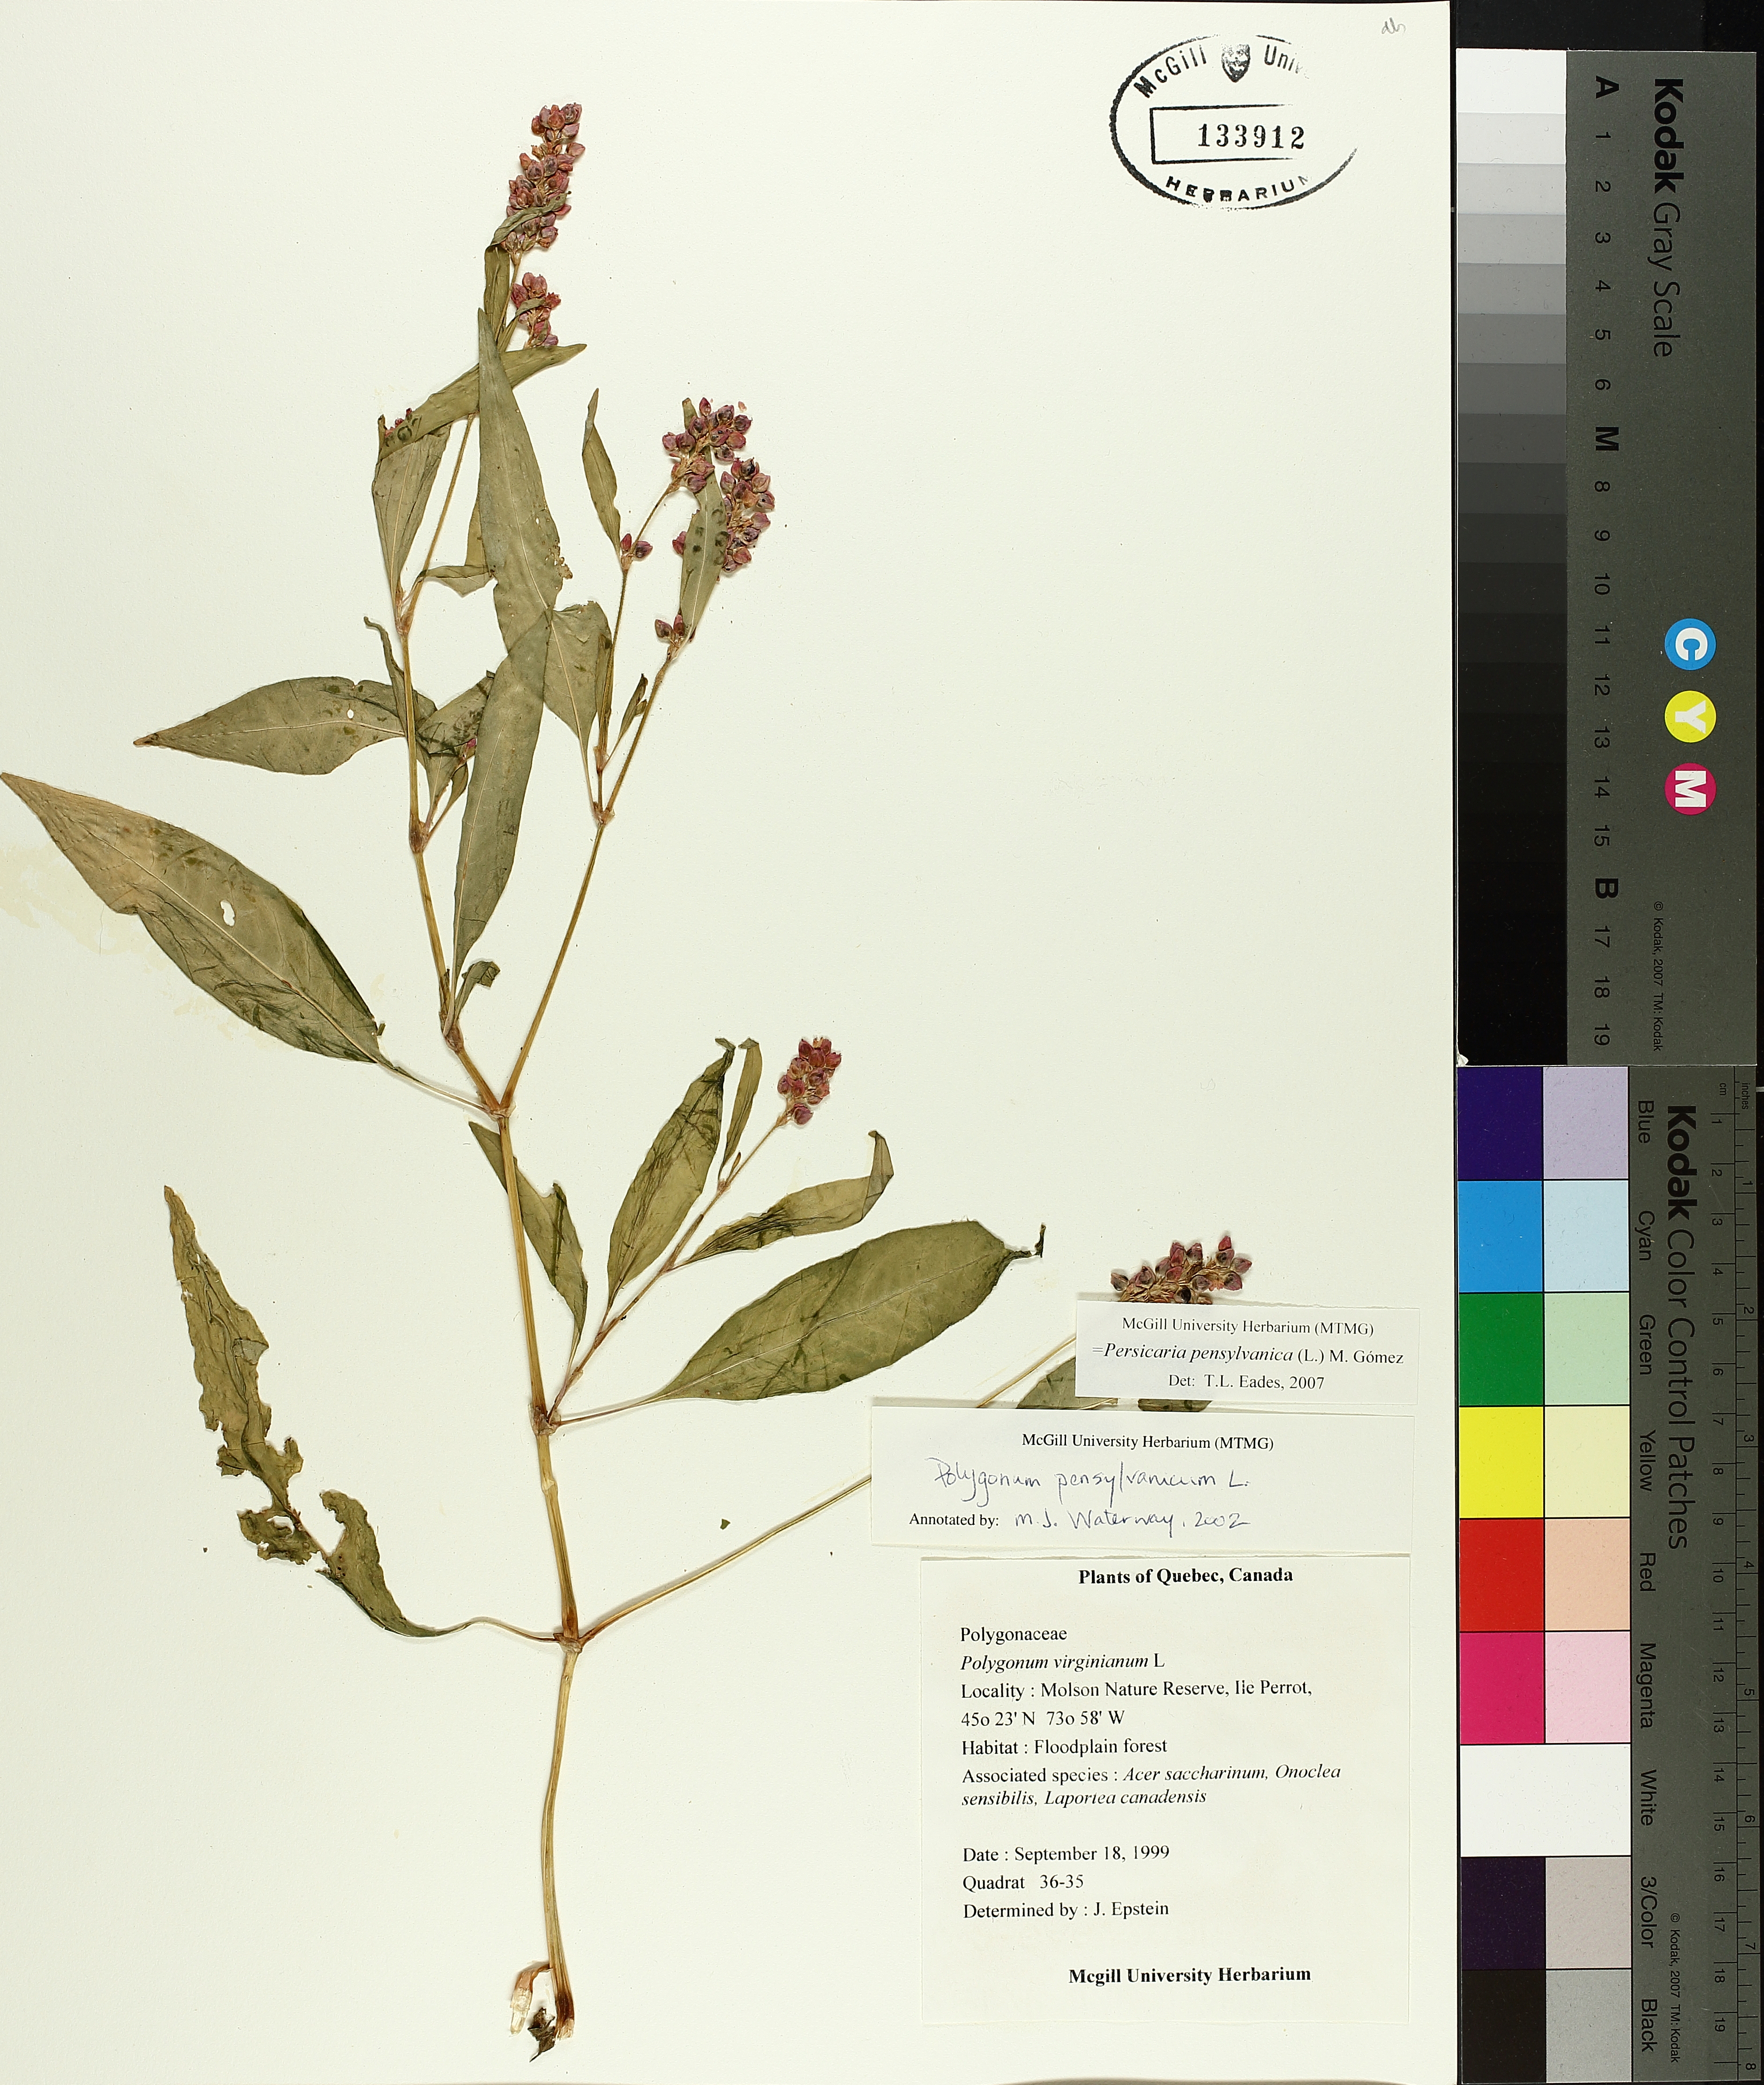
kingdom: Plantae
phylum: Tracheophyta
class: Magnoliopsida
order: Caryophyllales
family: Polygonaceae
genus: Persicaria
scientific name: Persicaria bungeana
